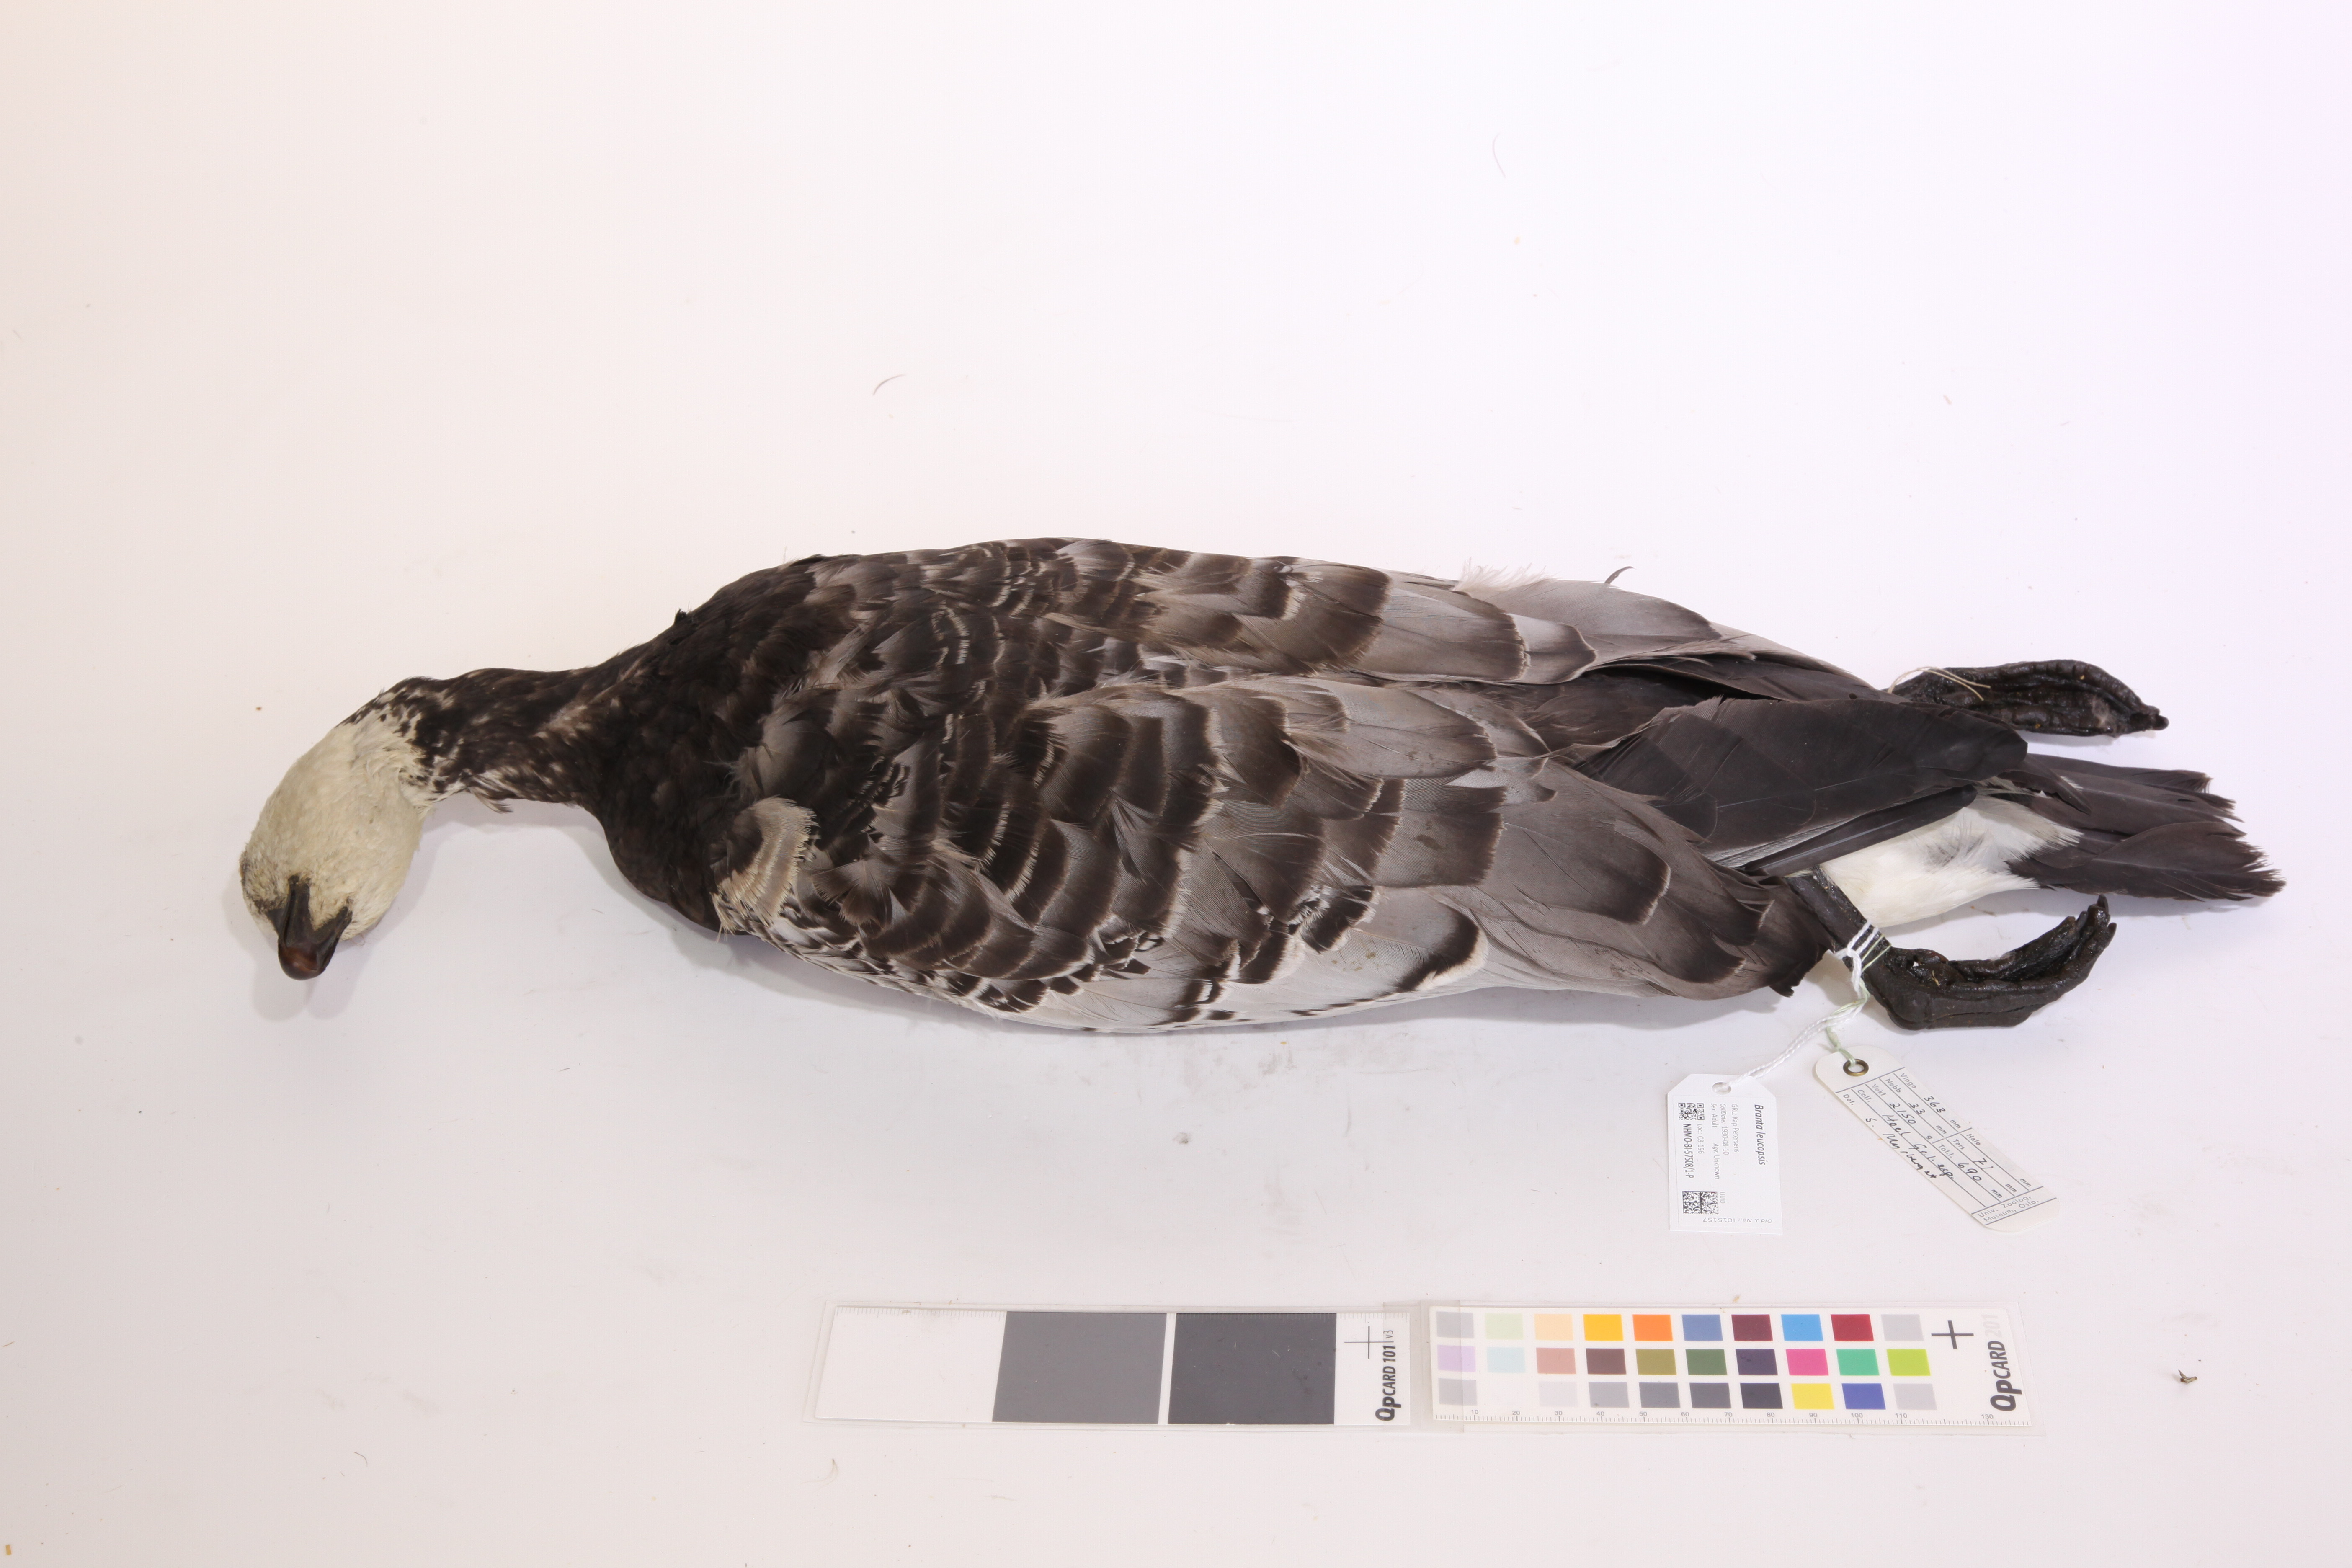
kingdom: Animalia
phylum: Chordata
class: Aves
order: Anseriformes
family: Anatidae
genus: Branta
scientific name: Branta leucopsis
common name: Barnacle goose
